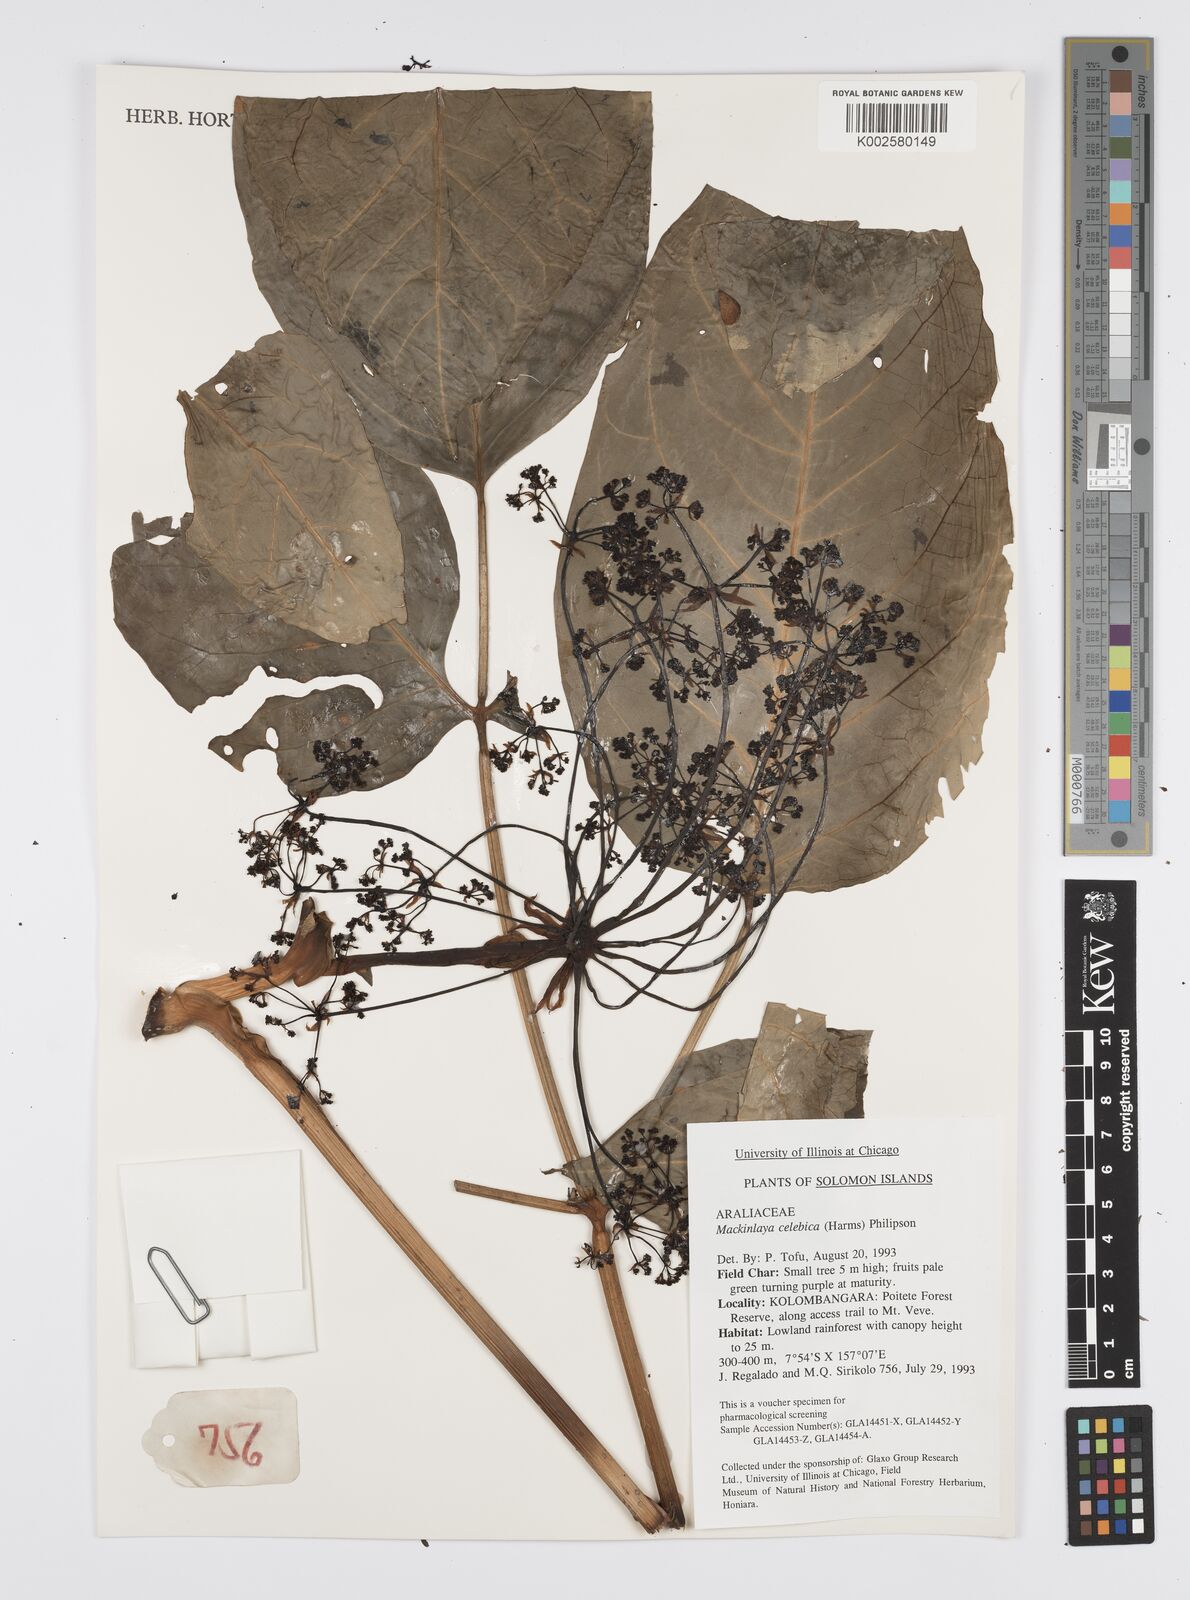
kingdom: Plantae
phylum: Tracheophyta
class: Magnoliopsida
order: Apiales
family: Apiaceae
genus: Mackinlaya
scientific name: Mackinlaya celebica
